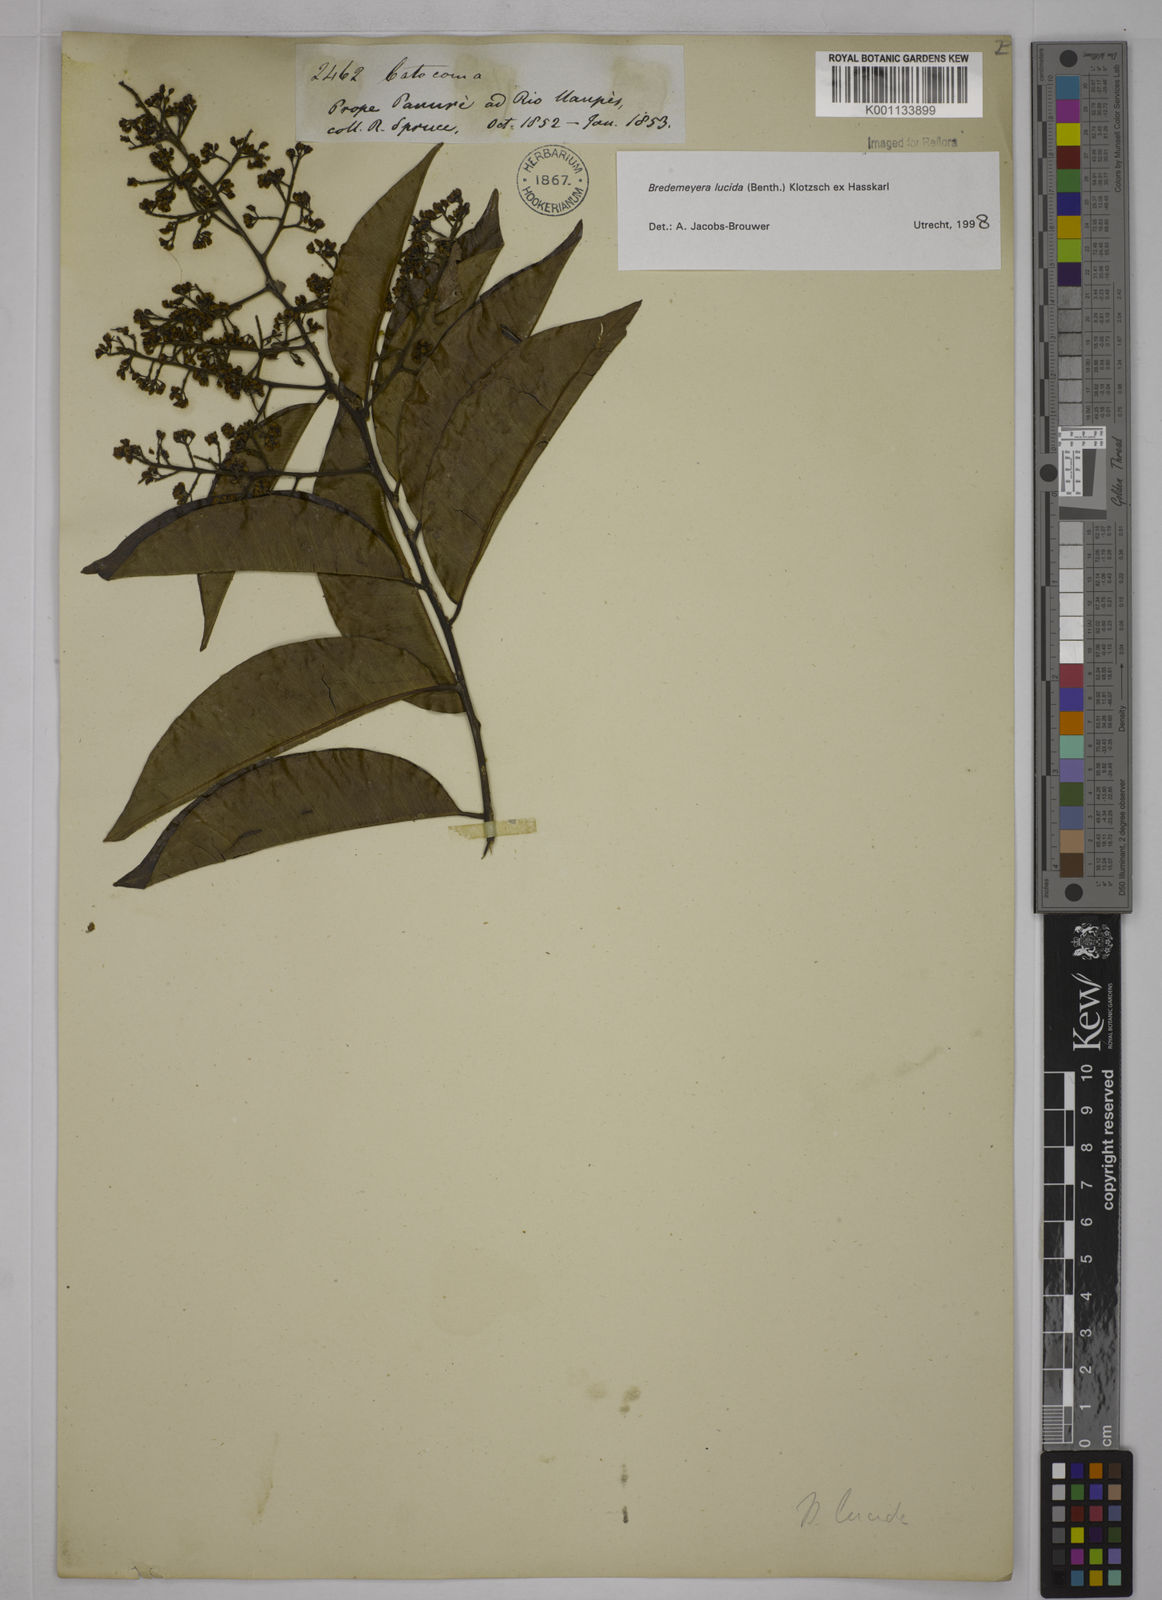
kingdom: Plantae
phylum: Tracheophyta
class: Magnoliopsida
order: Fabales
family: Polygalaceae
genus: Bredemeyera
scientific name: Bredemeyera lucida
